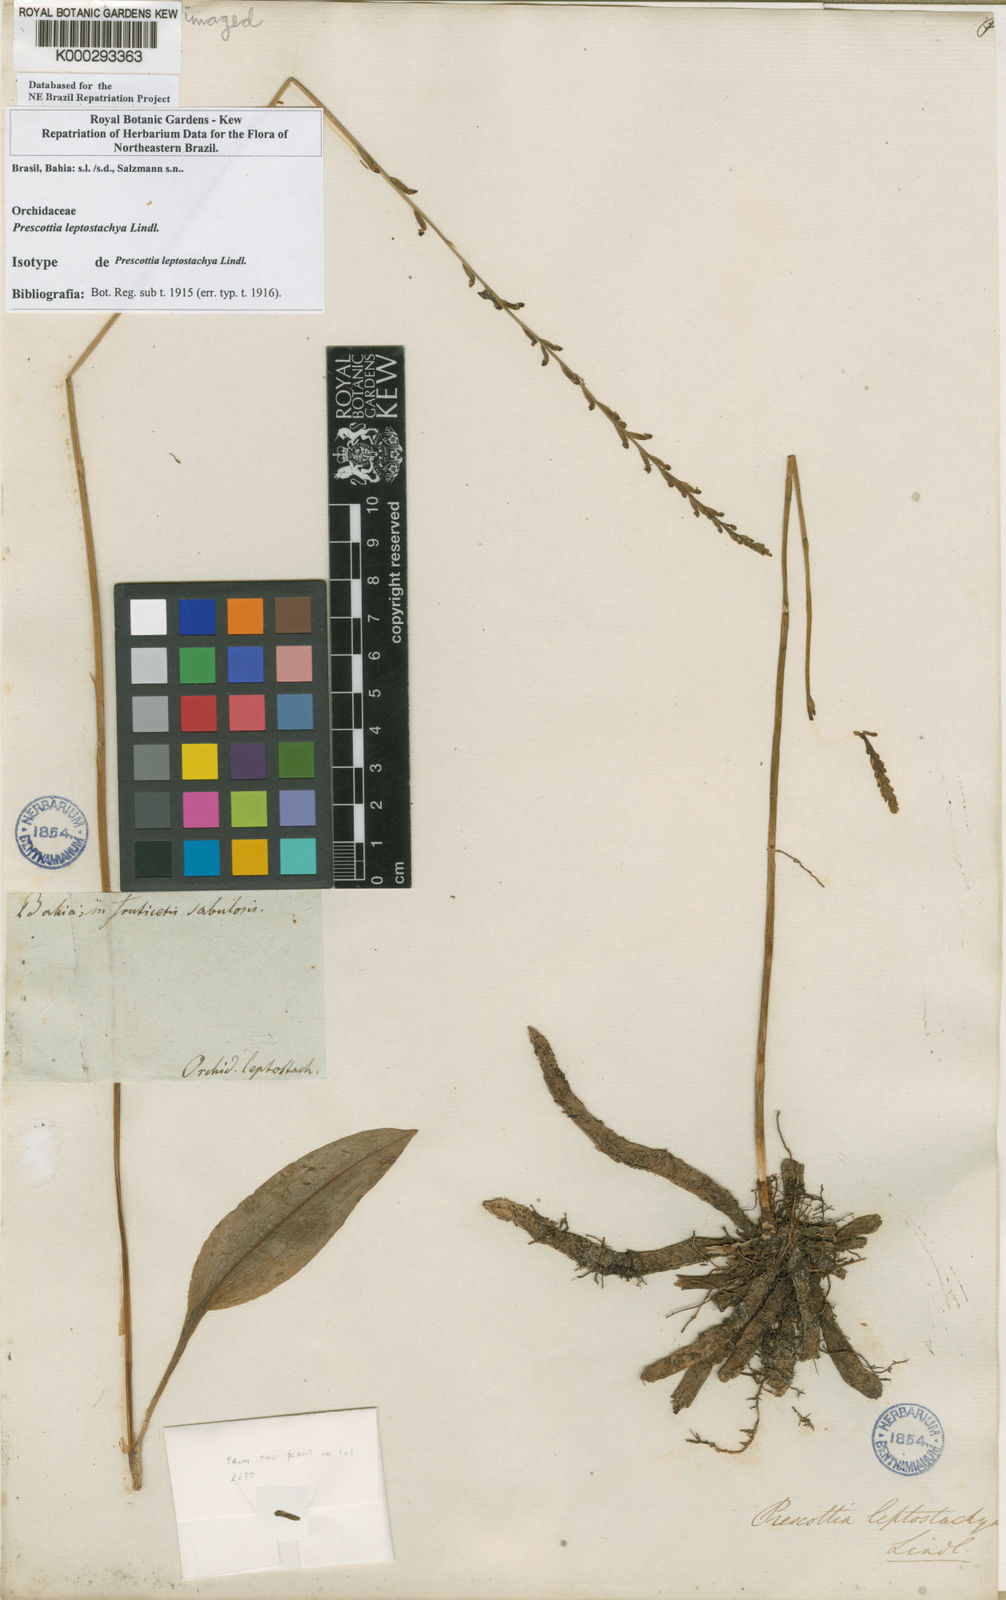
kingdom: Plantae
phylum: Tracheophyta
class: Liliopsida
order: Asparagales
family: Orchidaceae
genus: Prescottia
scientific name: Prescottia leptostachya
